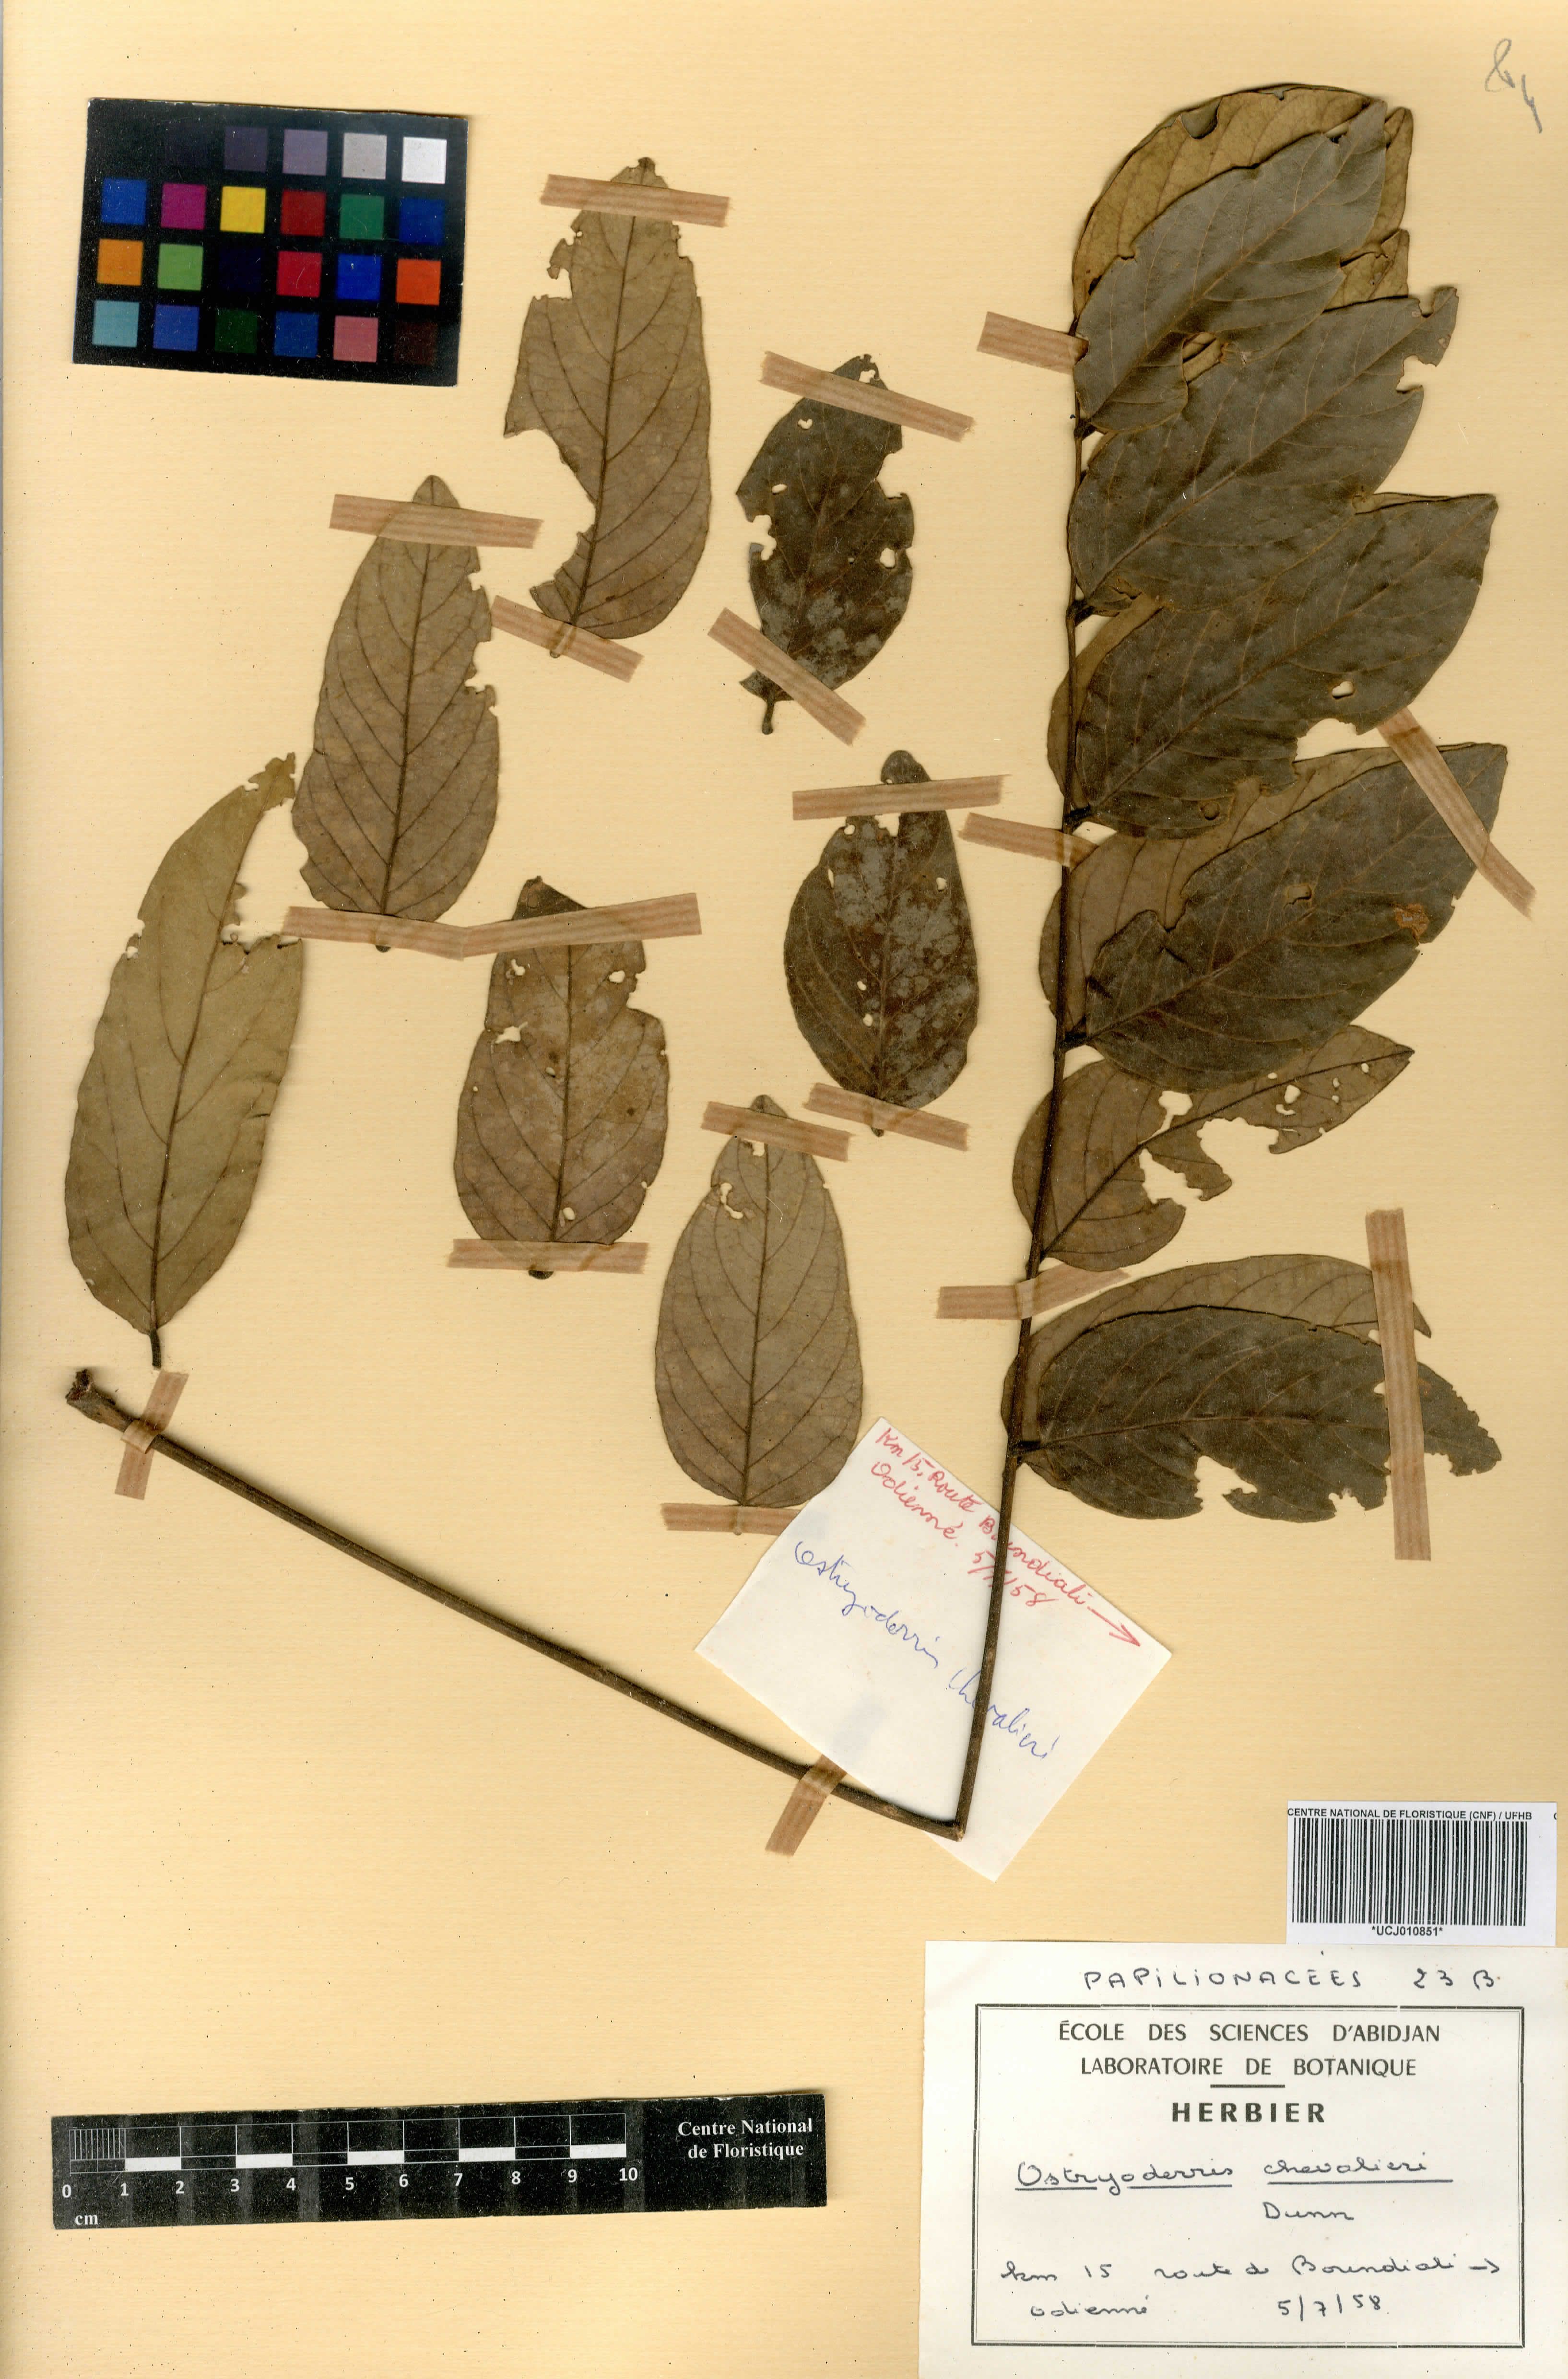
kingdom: Plantae
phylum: Tracheophyta
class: Magnoliopsida
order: Fabales
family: Fabaceae
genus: Aganope
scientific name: Aganope stuhlmannii
